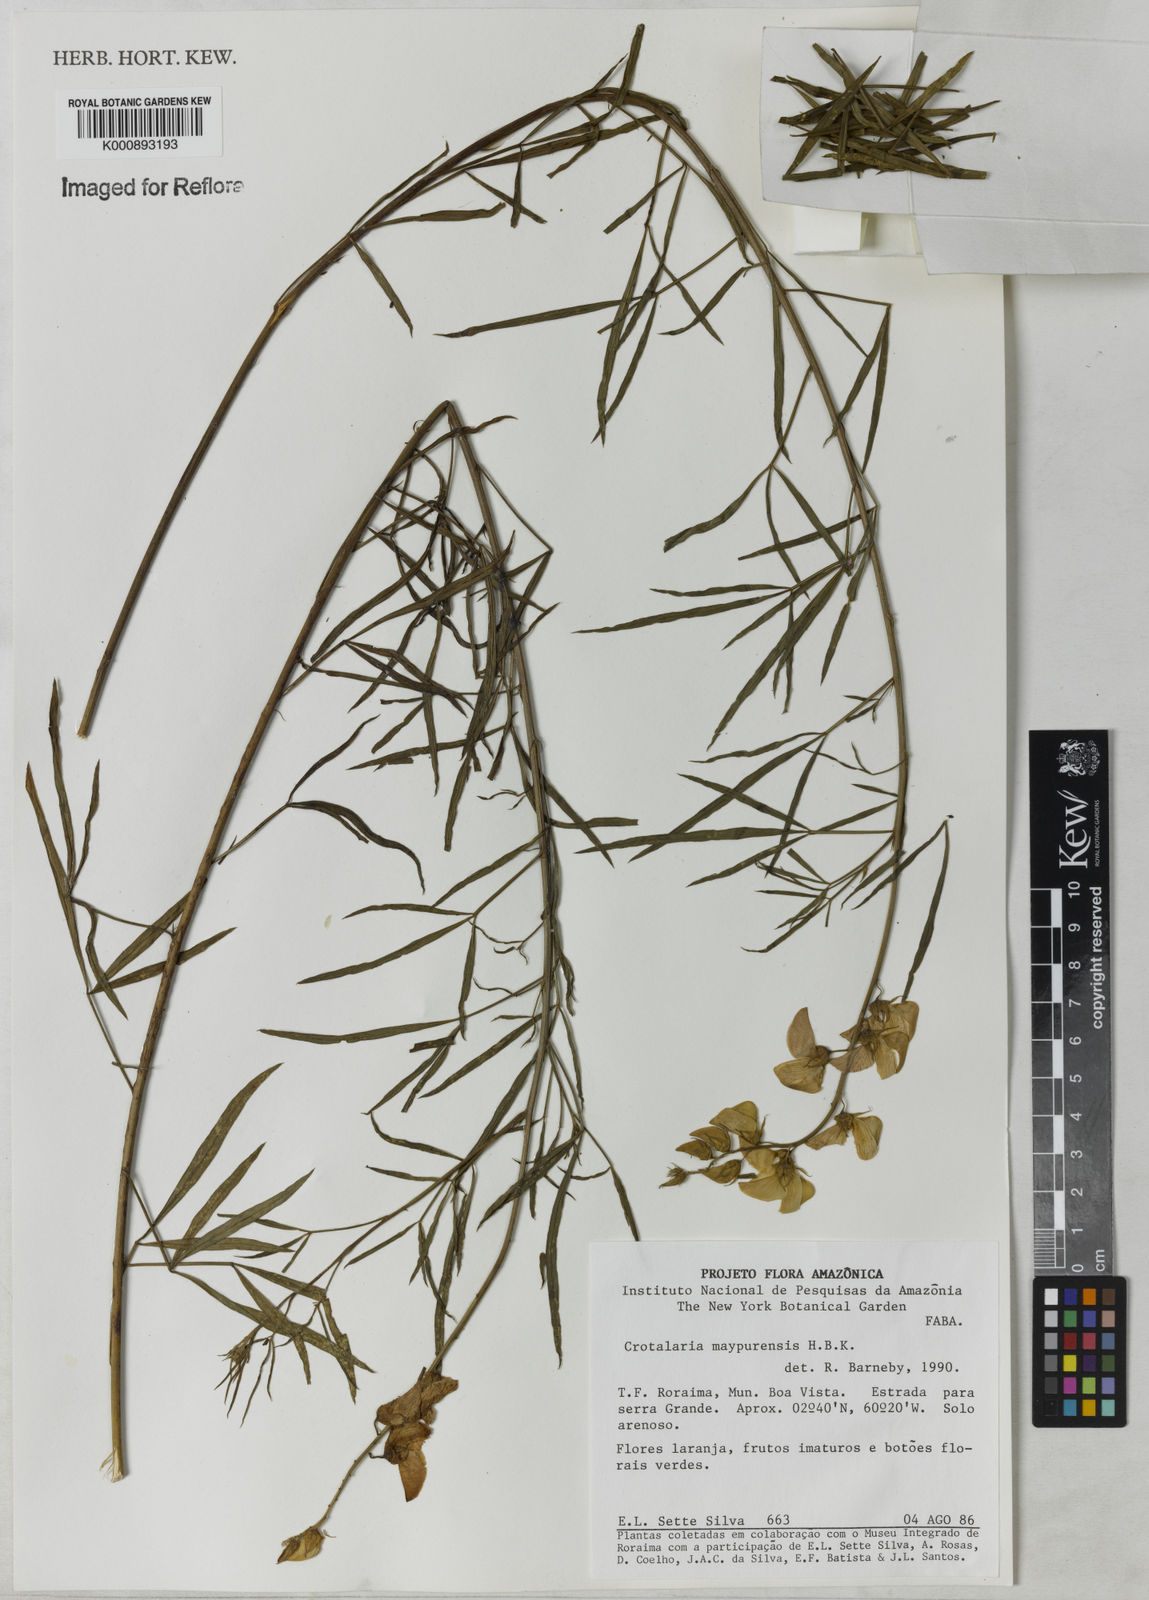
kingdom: Plantae
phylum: Tracheophyta
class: Magnoliopsida
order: Fabales
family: Fabaceae
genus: Crotalaria
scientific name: Crotalaria maypurensis
